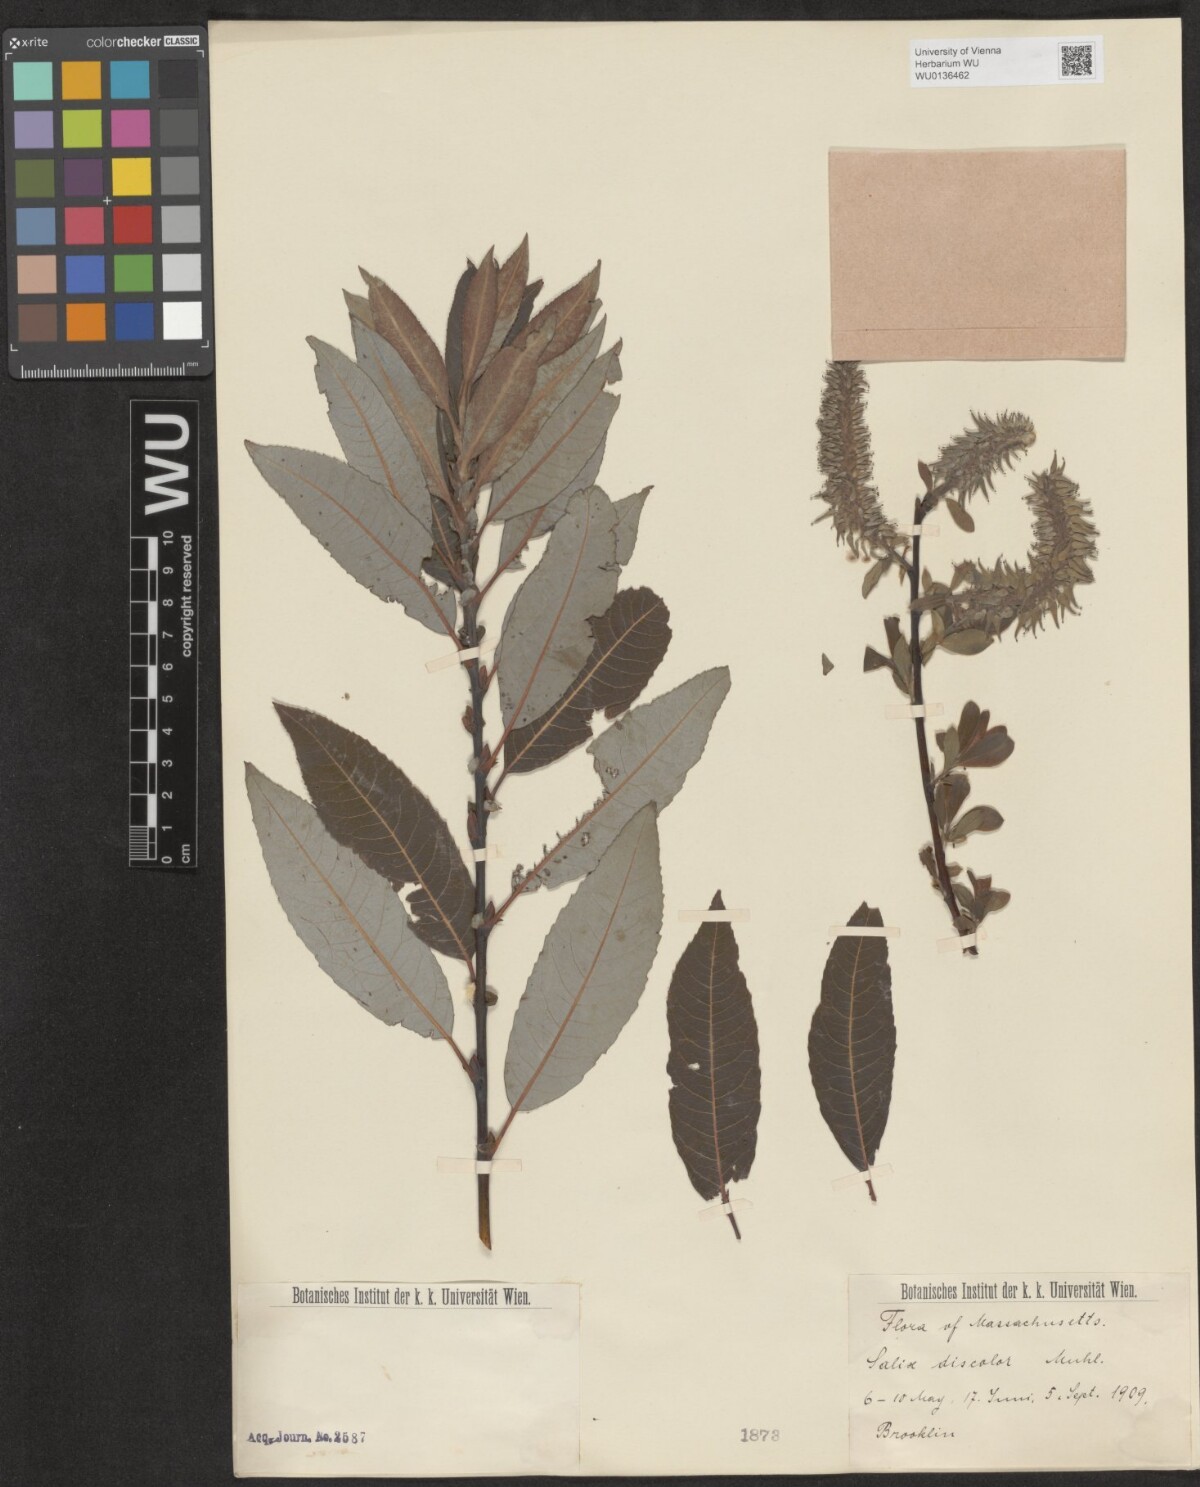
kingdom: Plantae
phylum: Tracheophyta
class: Magnoliopsida
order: Malpighiales
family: Salicaceae
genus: Salix
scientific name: Salix discolor
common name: Glaucous willow
